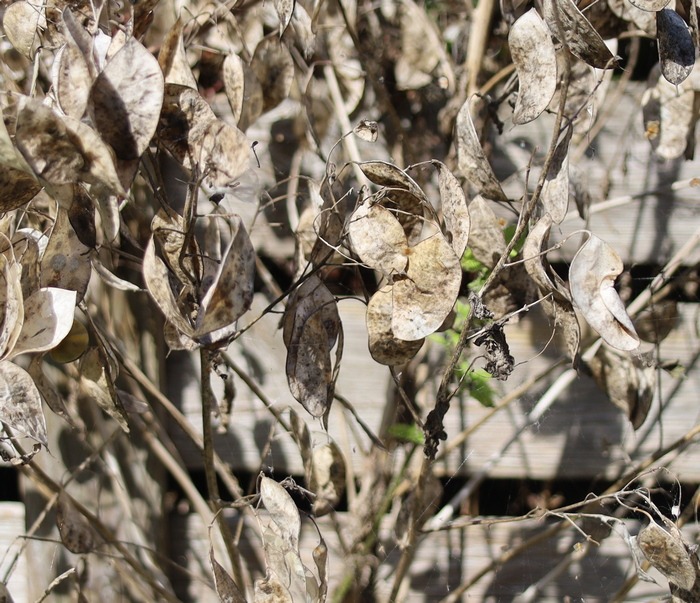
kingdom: Plantae
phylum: Tracheophyta
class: Magnoliopsida
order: Brassicales
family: Brassicaceae
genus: Lunaria
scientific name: Lunaria annua
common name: Judaspenge
